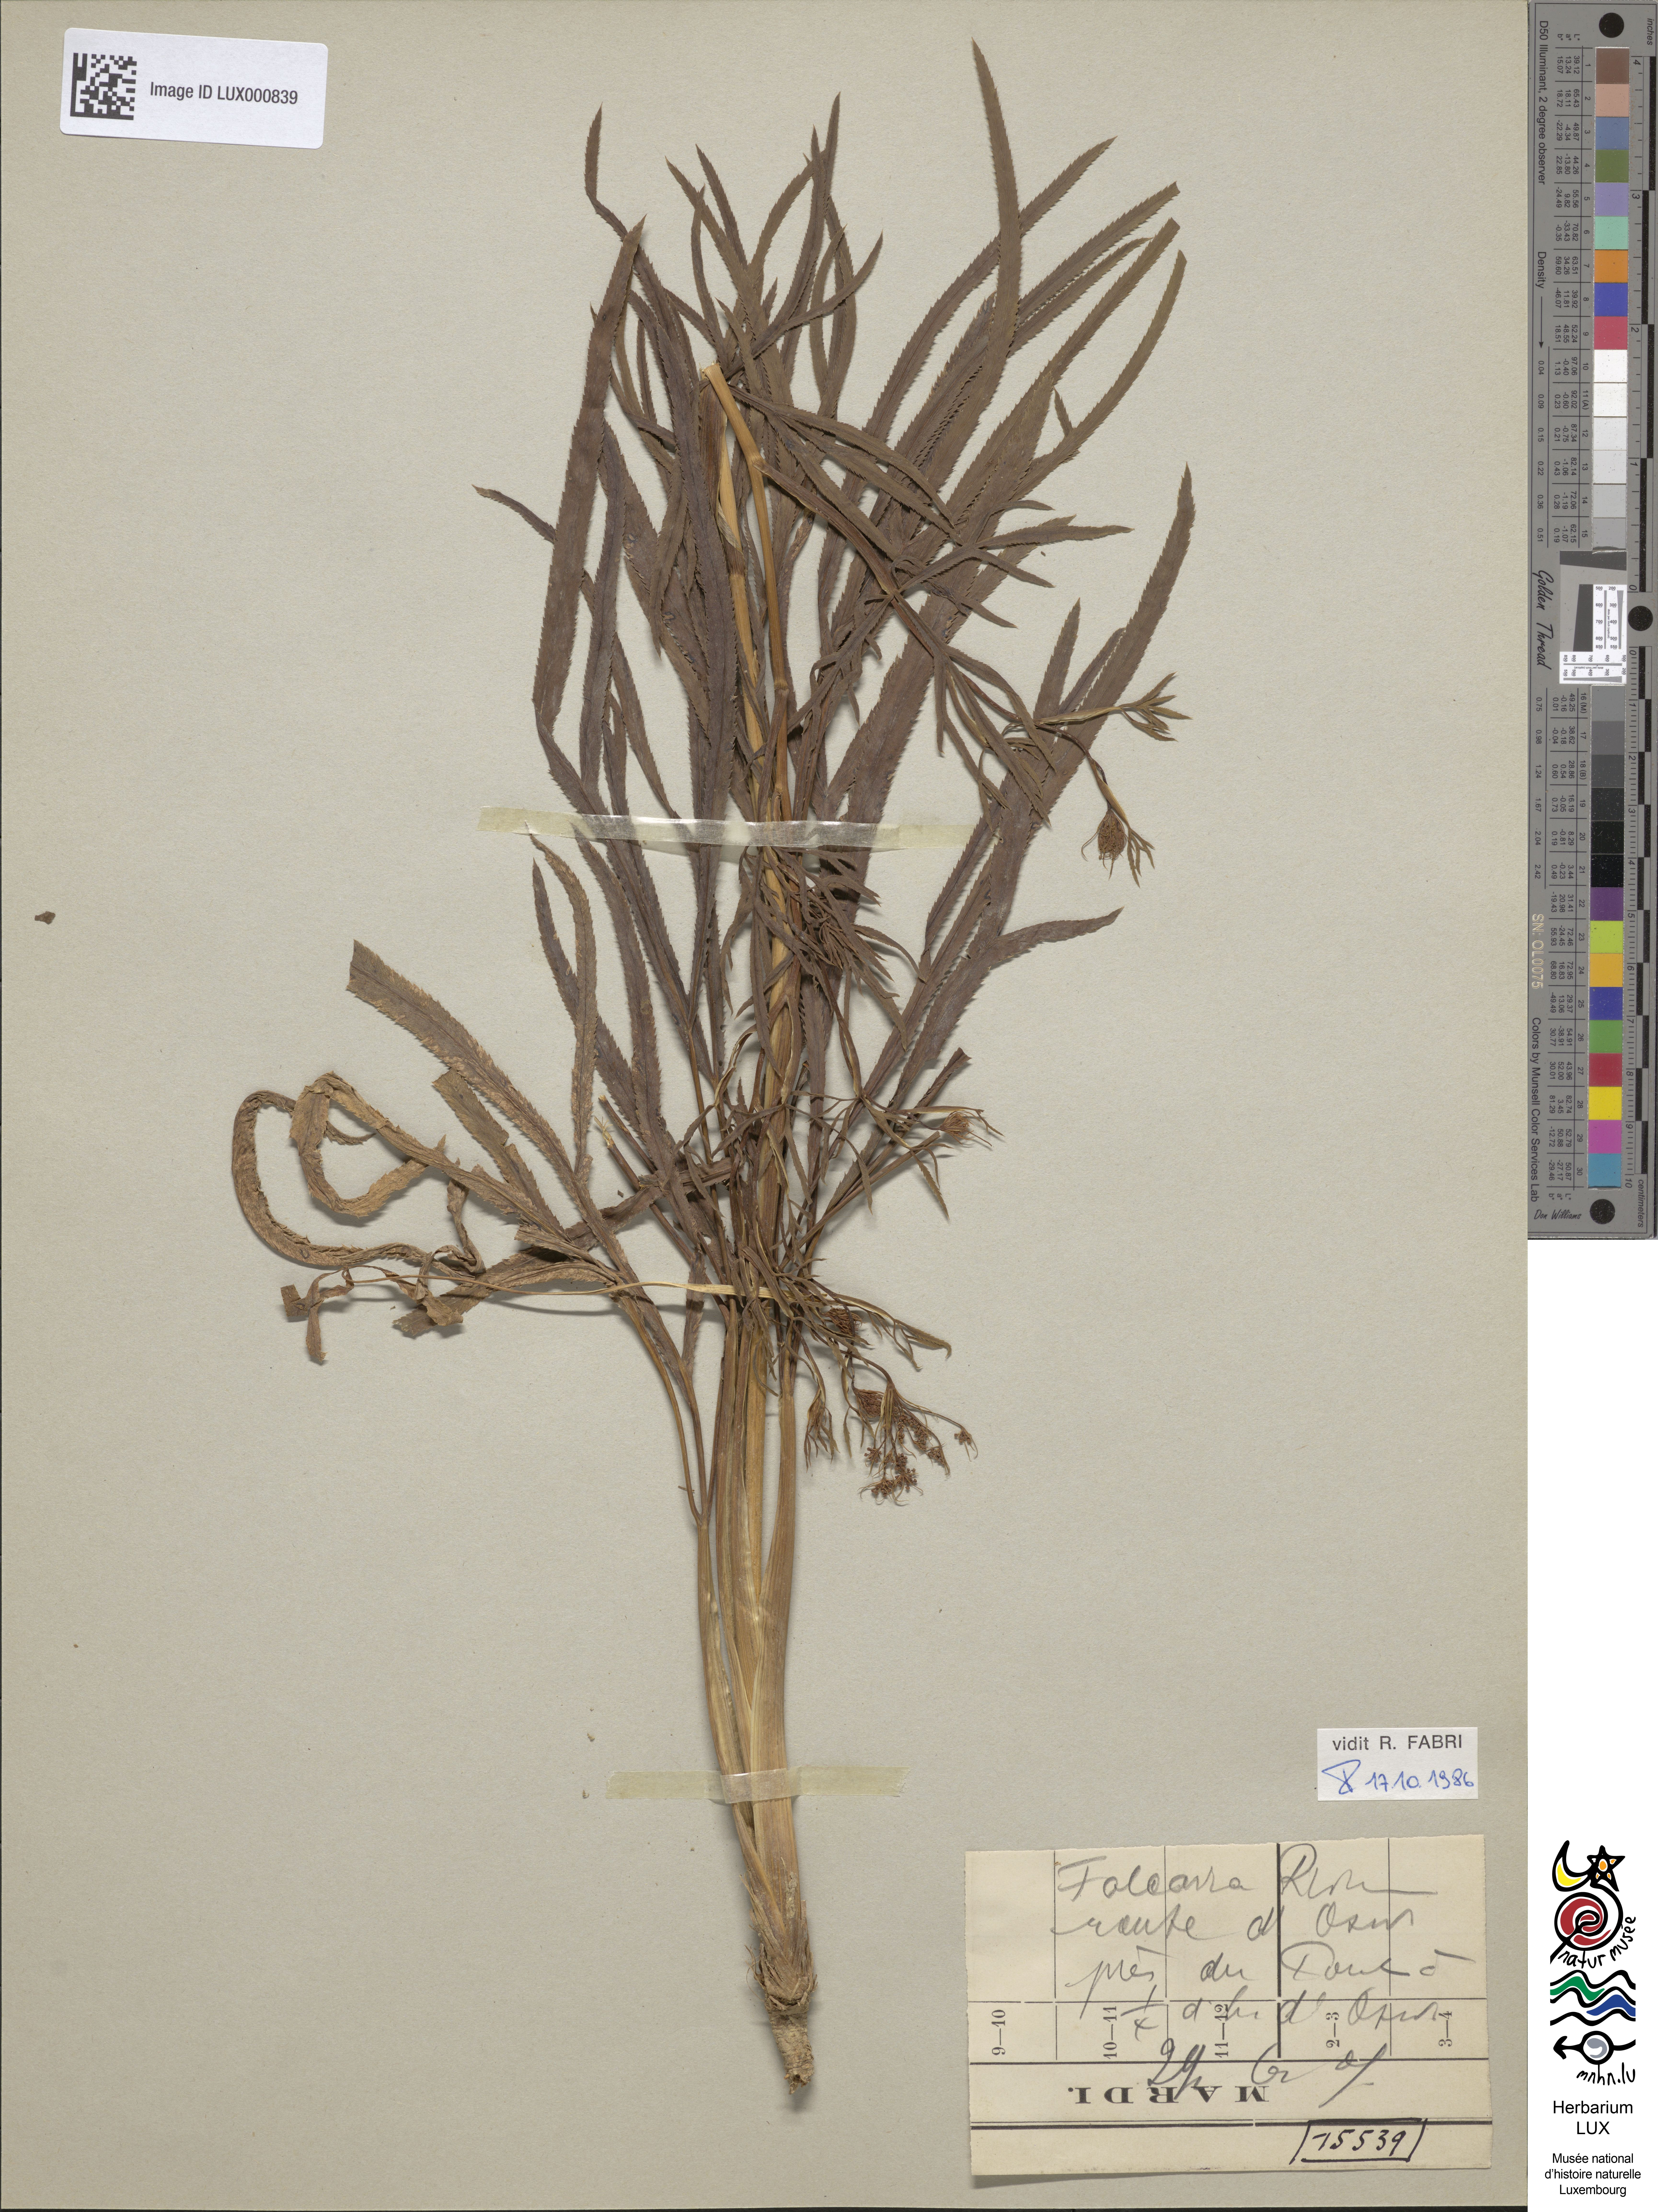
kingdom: Plantae
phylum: Tracheophyta
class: Magnoliopsida
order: Apiales
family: Apiaceae
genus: Falcaria
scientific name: Falcaria vulgaris
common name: Longleaf
